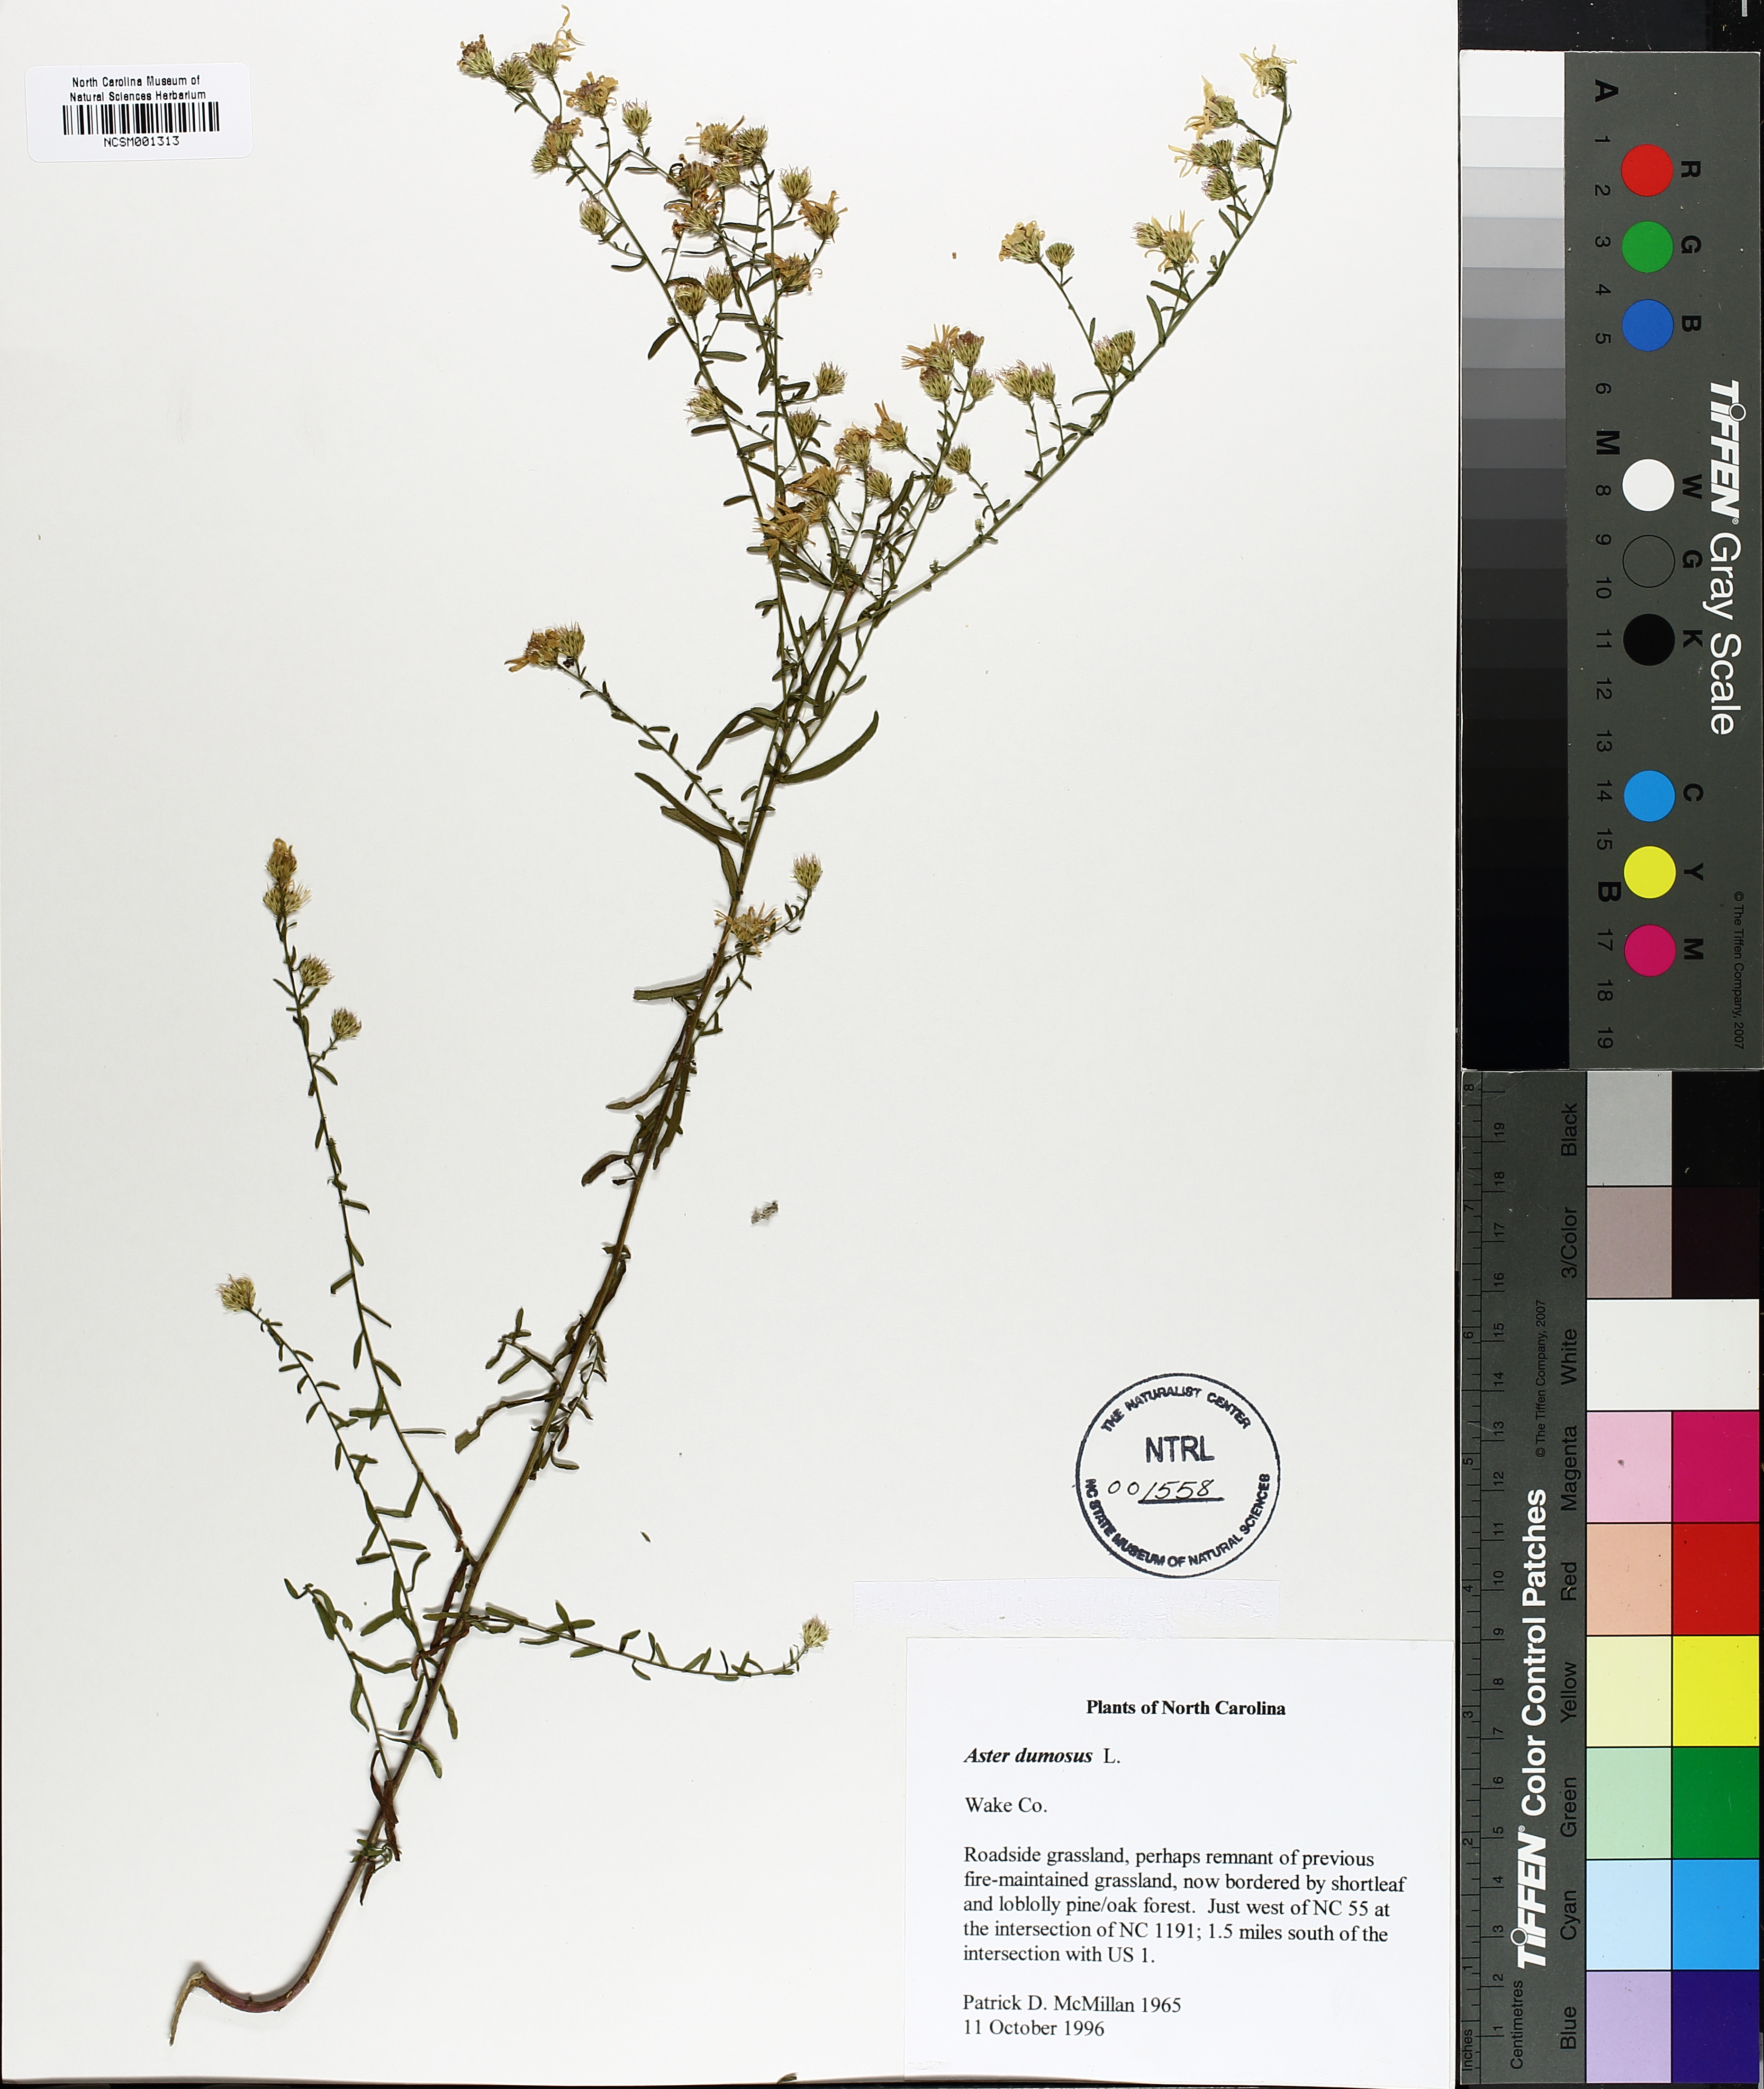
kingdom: Plantae
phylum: Tracheophyta
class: Magnoliopsida
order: Asterales
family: Asteraceae
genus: Symphyotrichum
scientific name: Symphyotrichum dumosum
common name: Bushy aster
